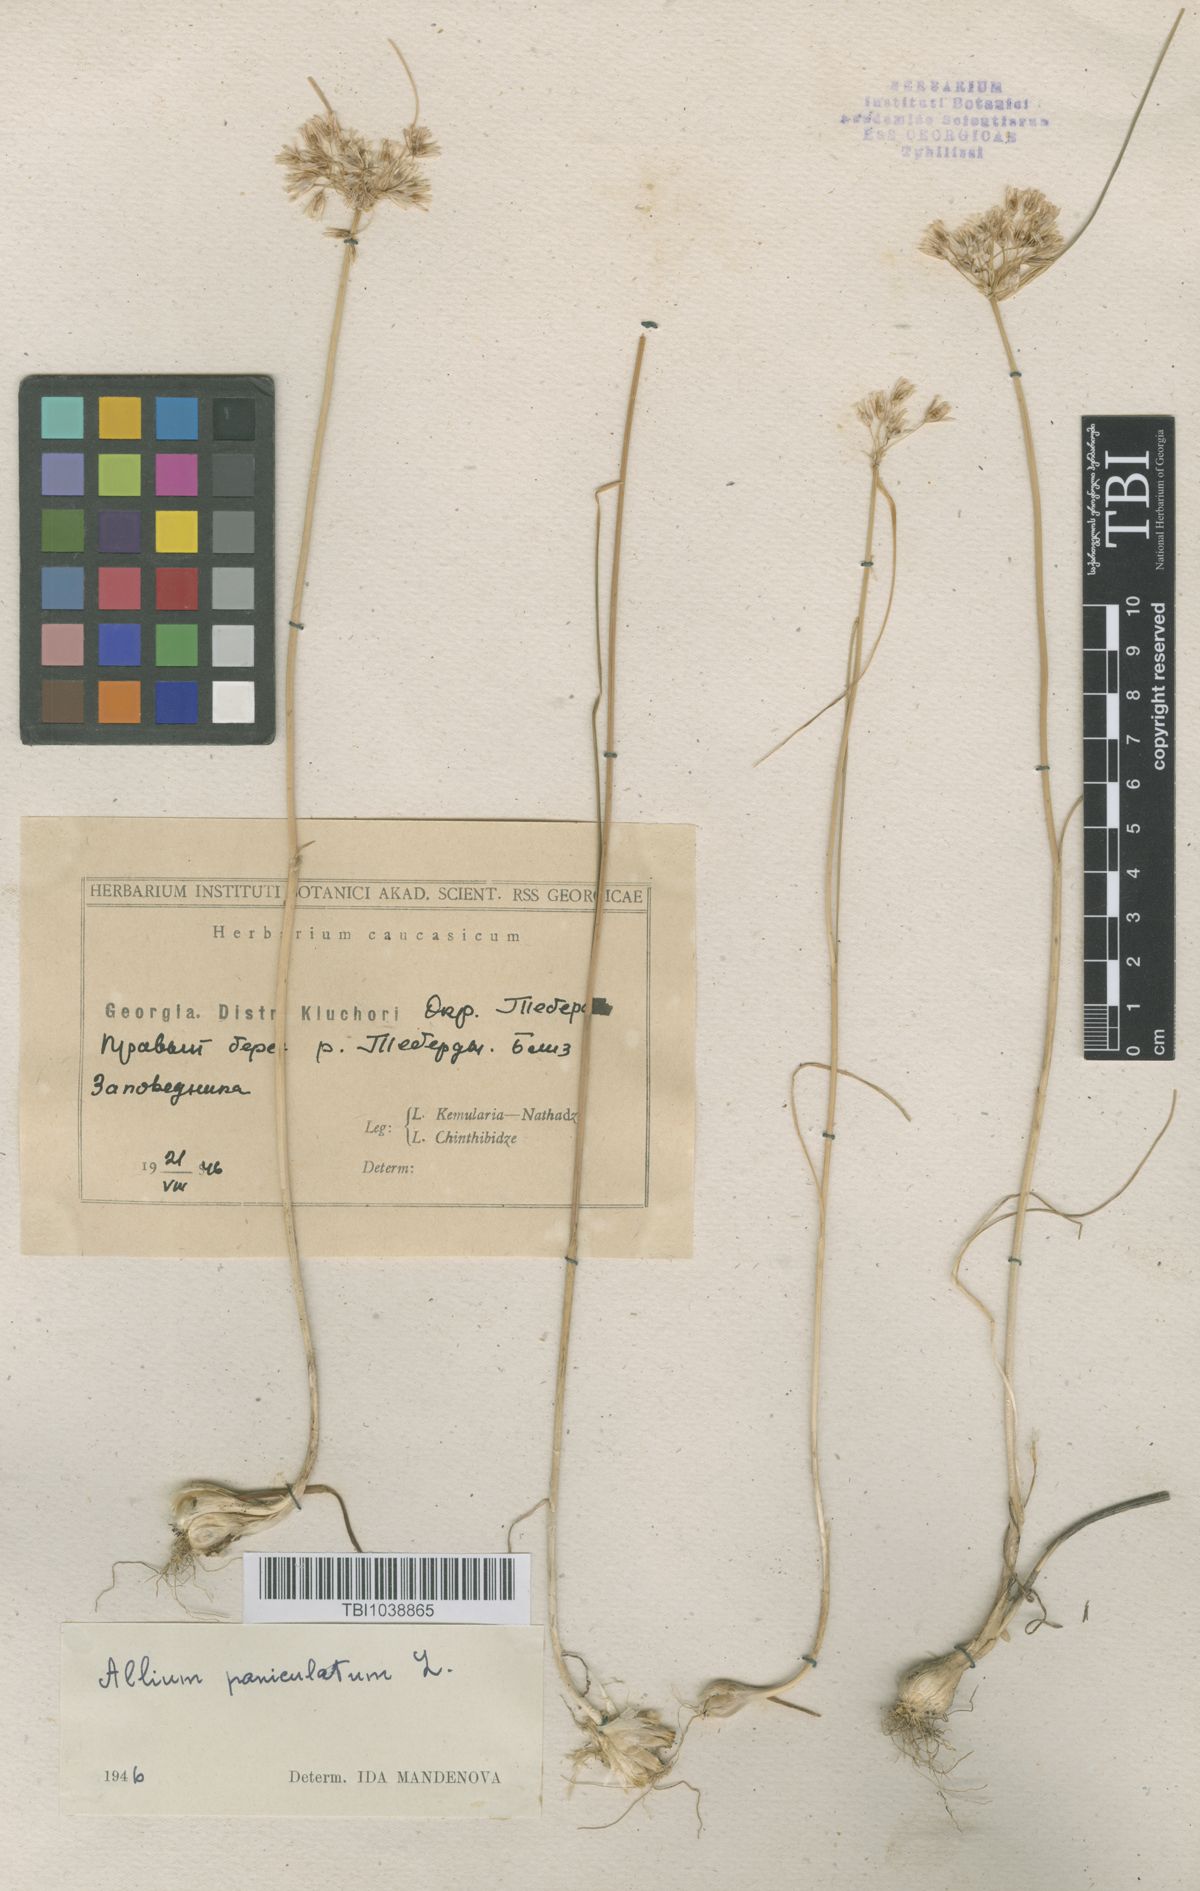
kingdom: Plantae
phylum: Tracheophyta
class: Liliopsida
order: Asparagales
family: Amaryllidaceae
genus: Allium
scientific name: Allium paniculatum
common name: Pale garlic
